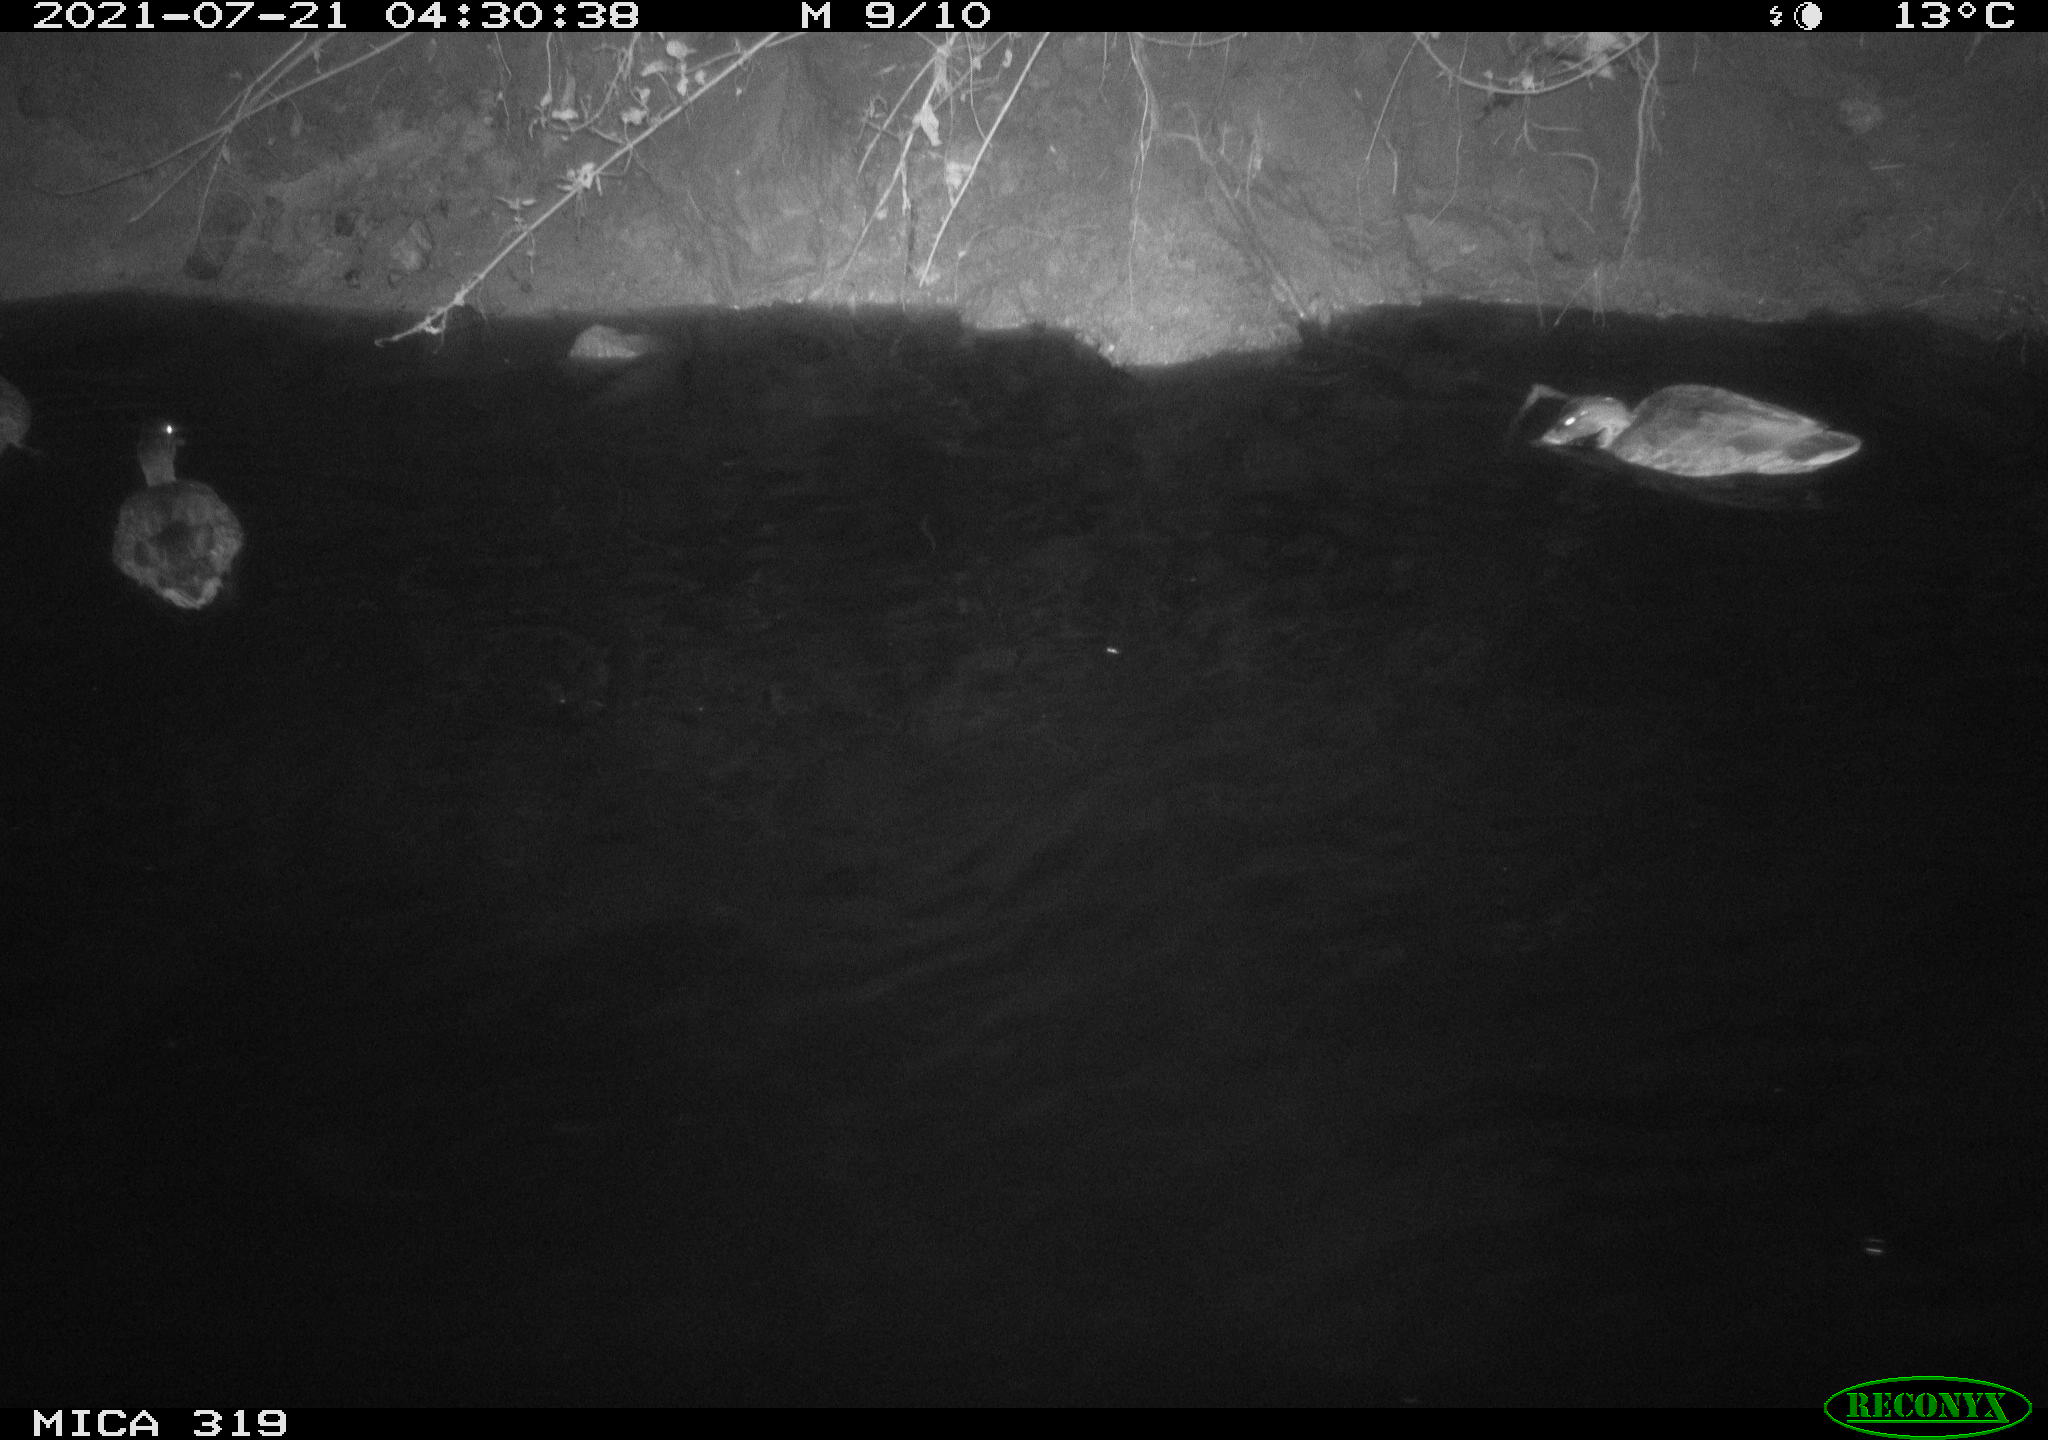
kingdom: Animalia
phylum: Chordata
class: Aves
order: Anseriformes
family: Anatidae
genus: Anas
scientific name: Anas platyrhynchos
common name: Mallard
